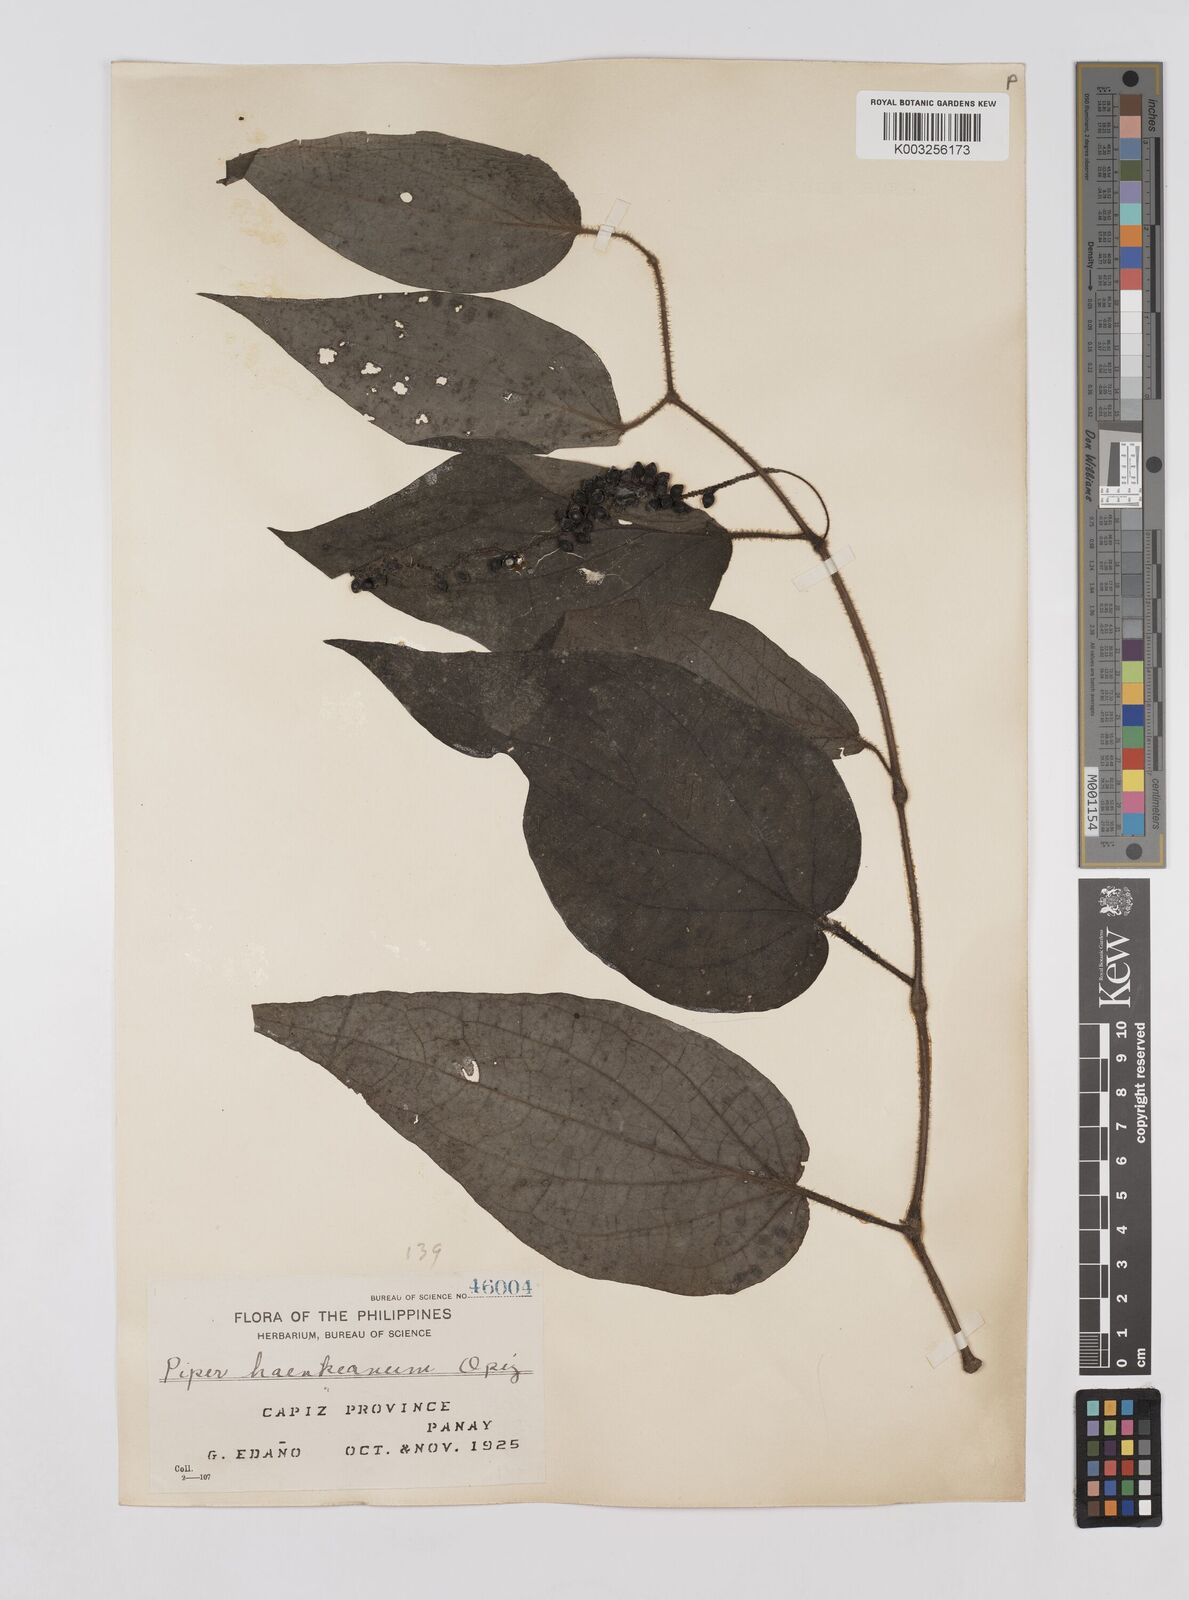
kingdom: Plantae
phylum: Tracheophyta
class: Magnoliopsida
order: Piperales
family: Piperaceae
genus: Piper
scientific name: Piper lanatum
